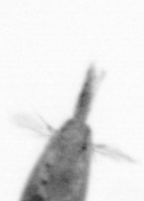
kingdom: Animalia
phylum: Arthropoda
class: Maxillopoda
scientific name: Maxillopoda
